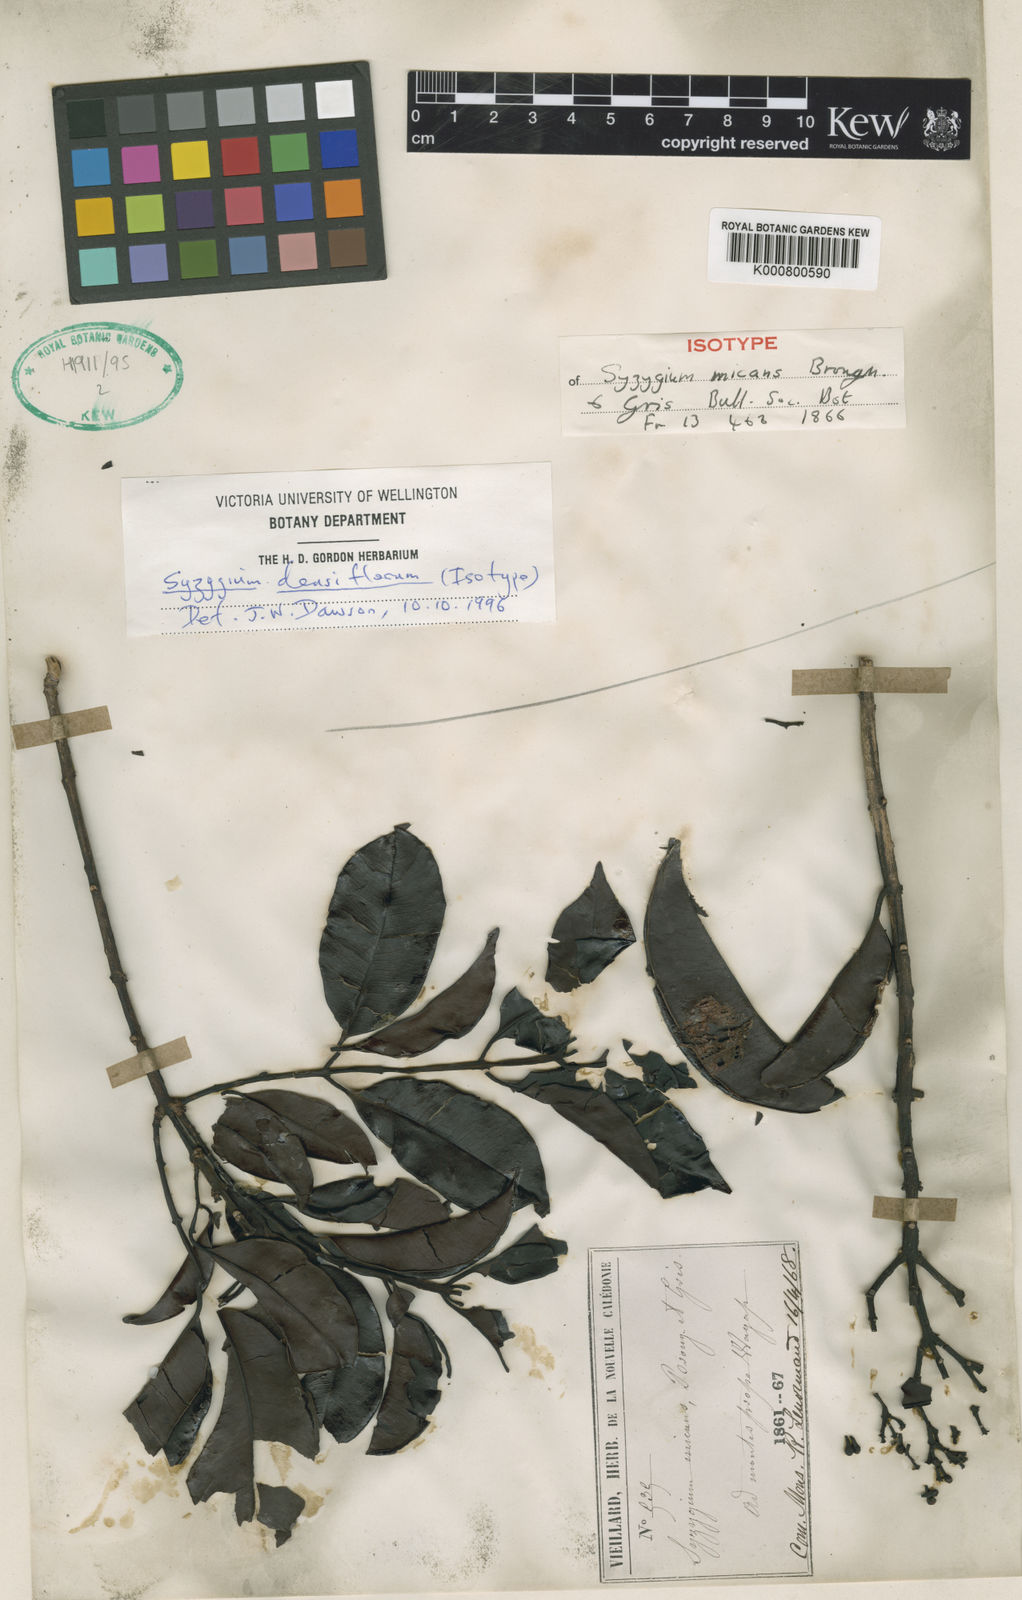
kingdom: Plantae
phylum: Tracheophyta
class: Magnoliopsida
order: Myrtales
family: Myrtaceae
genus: Syzygium
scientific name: Syzygium densiflorum
